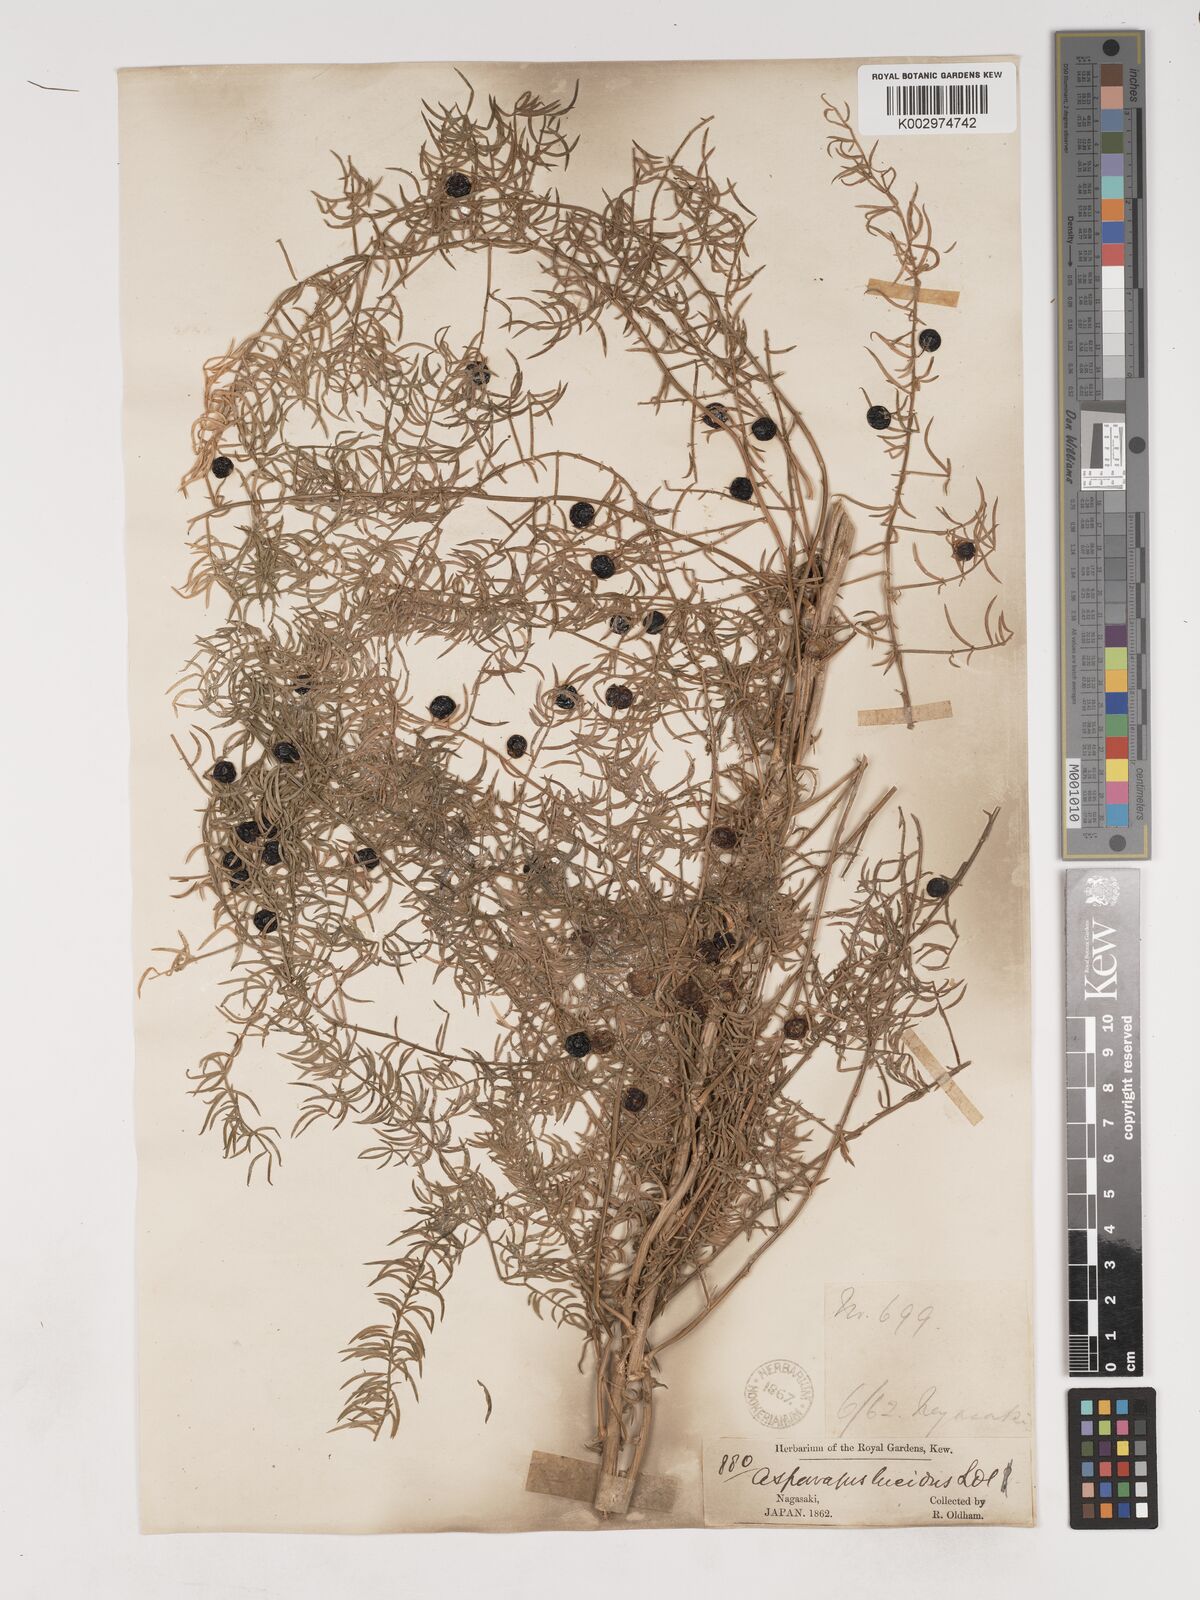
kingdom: Plantae
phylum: Tracheophyta
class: Liliopsida
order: Asparagales
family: Asparagaceae
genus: Asparagus
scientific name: Asparagus cochinchinensis
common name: Chinese asparagus
